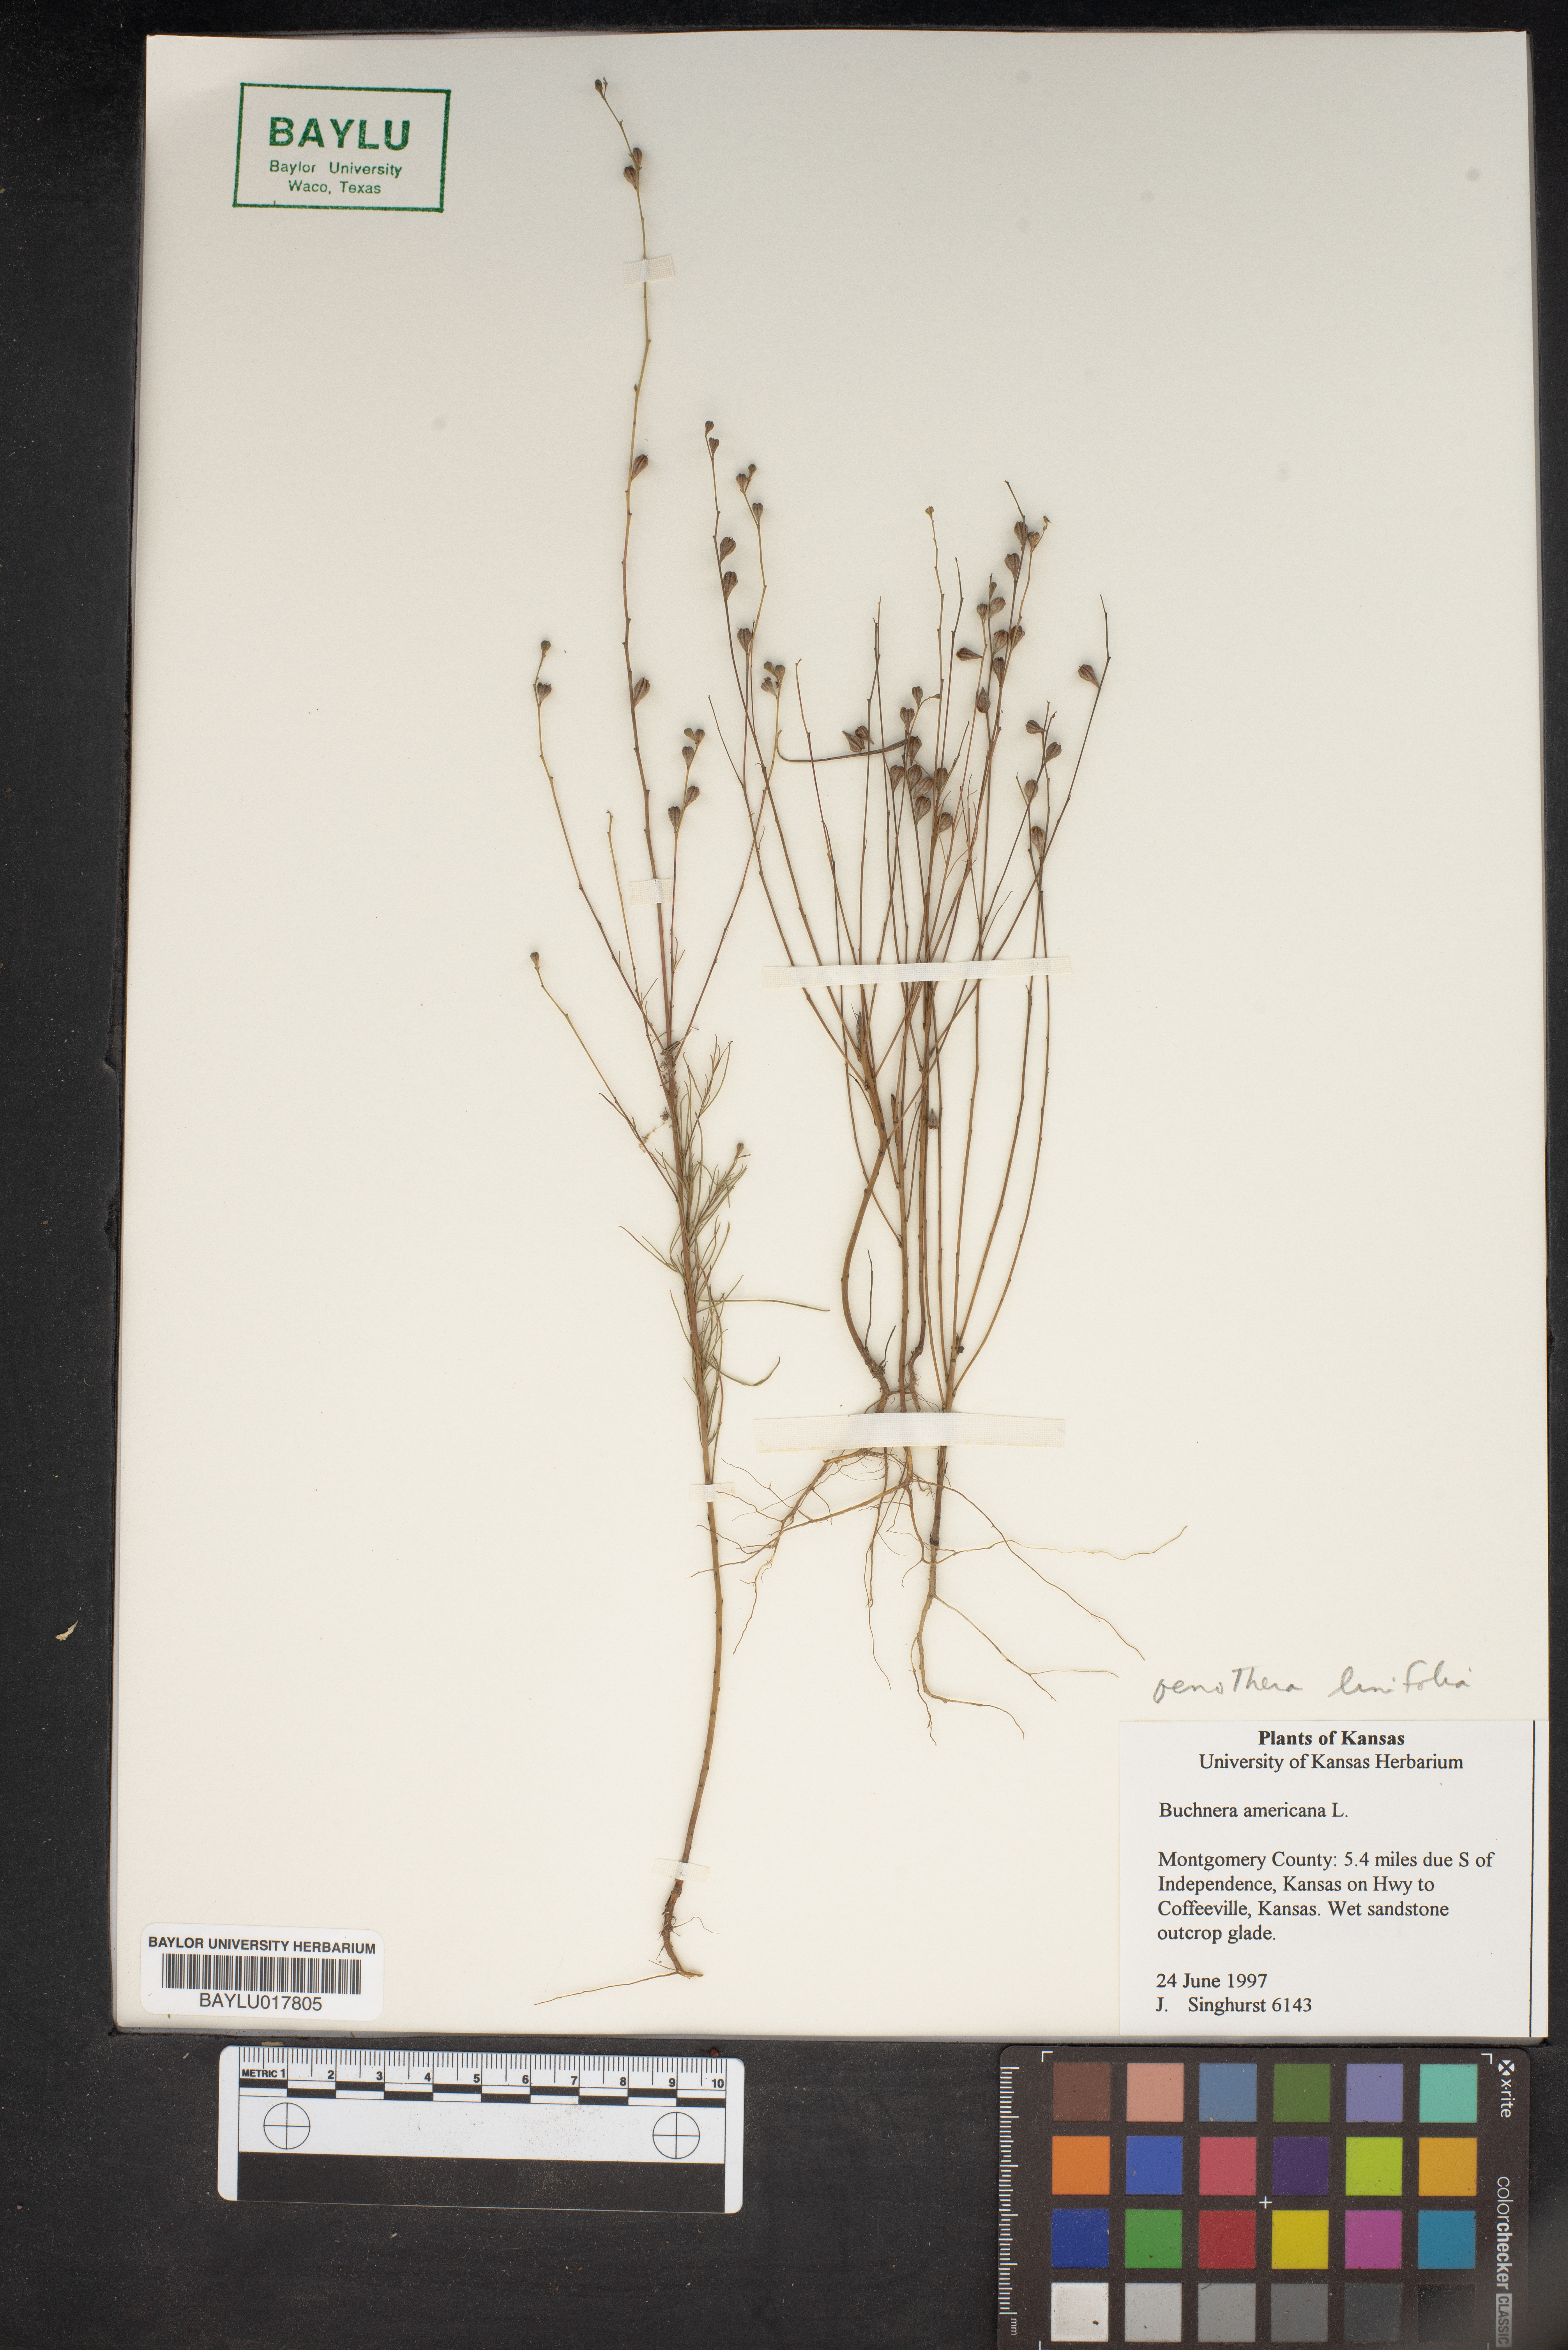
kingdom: Plantae
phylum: Tracheophyta
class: Magnoliopsida
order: Lamiales
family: Orobanchaceae
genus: Buchnera
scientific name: Buchnera americana
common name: American bluehearts
